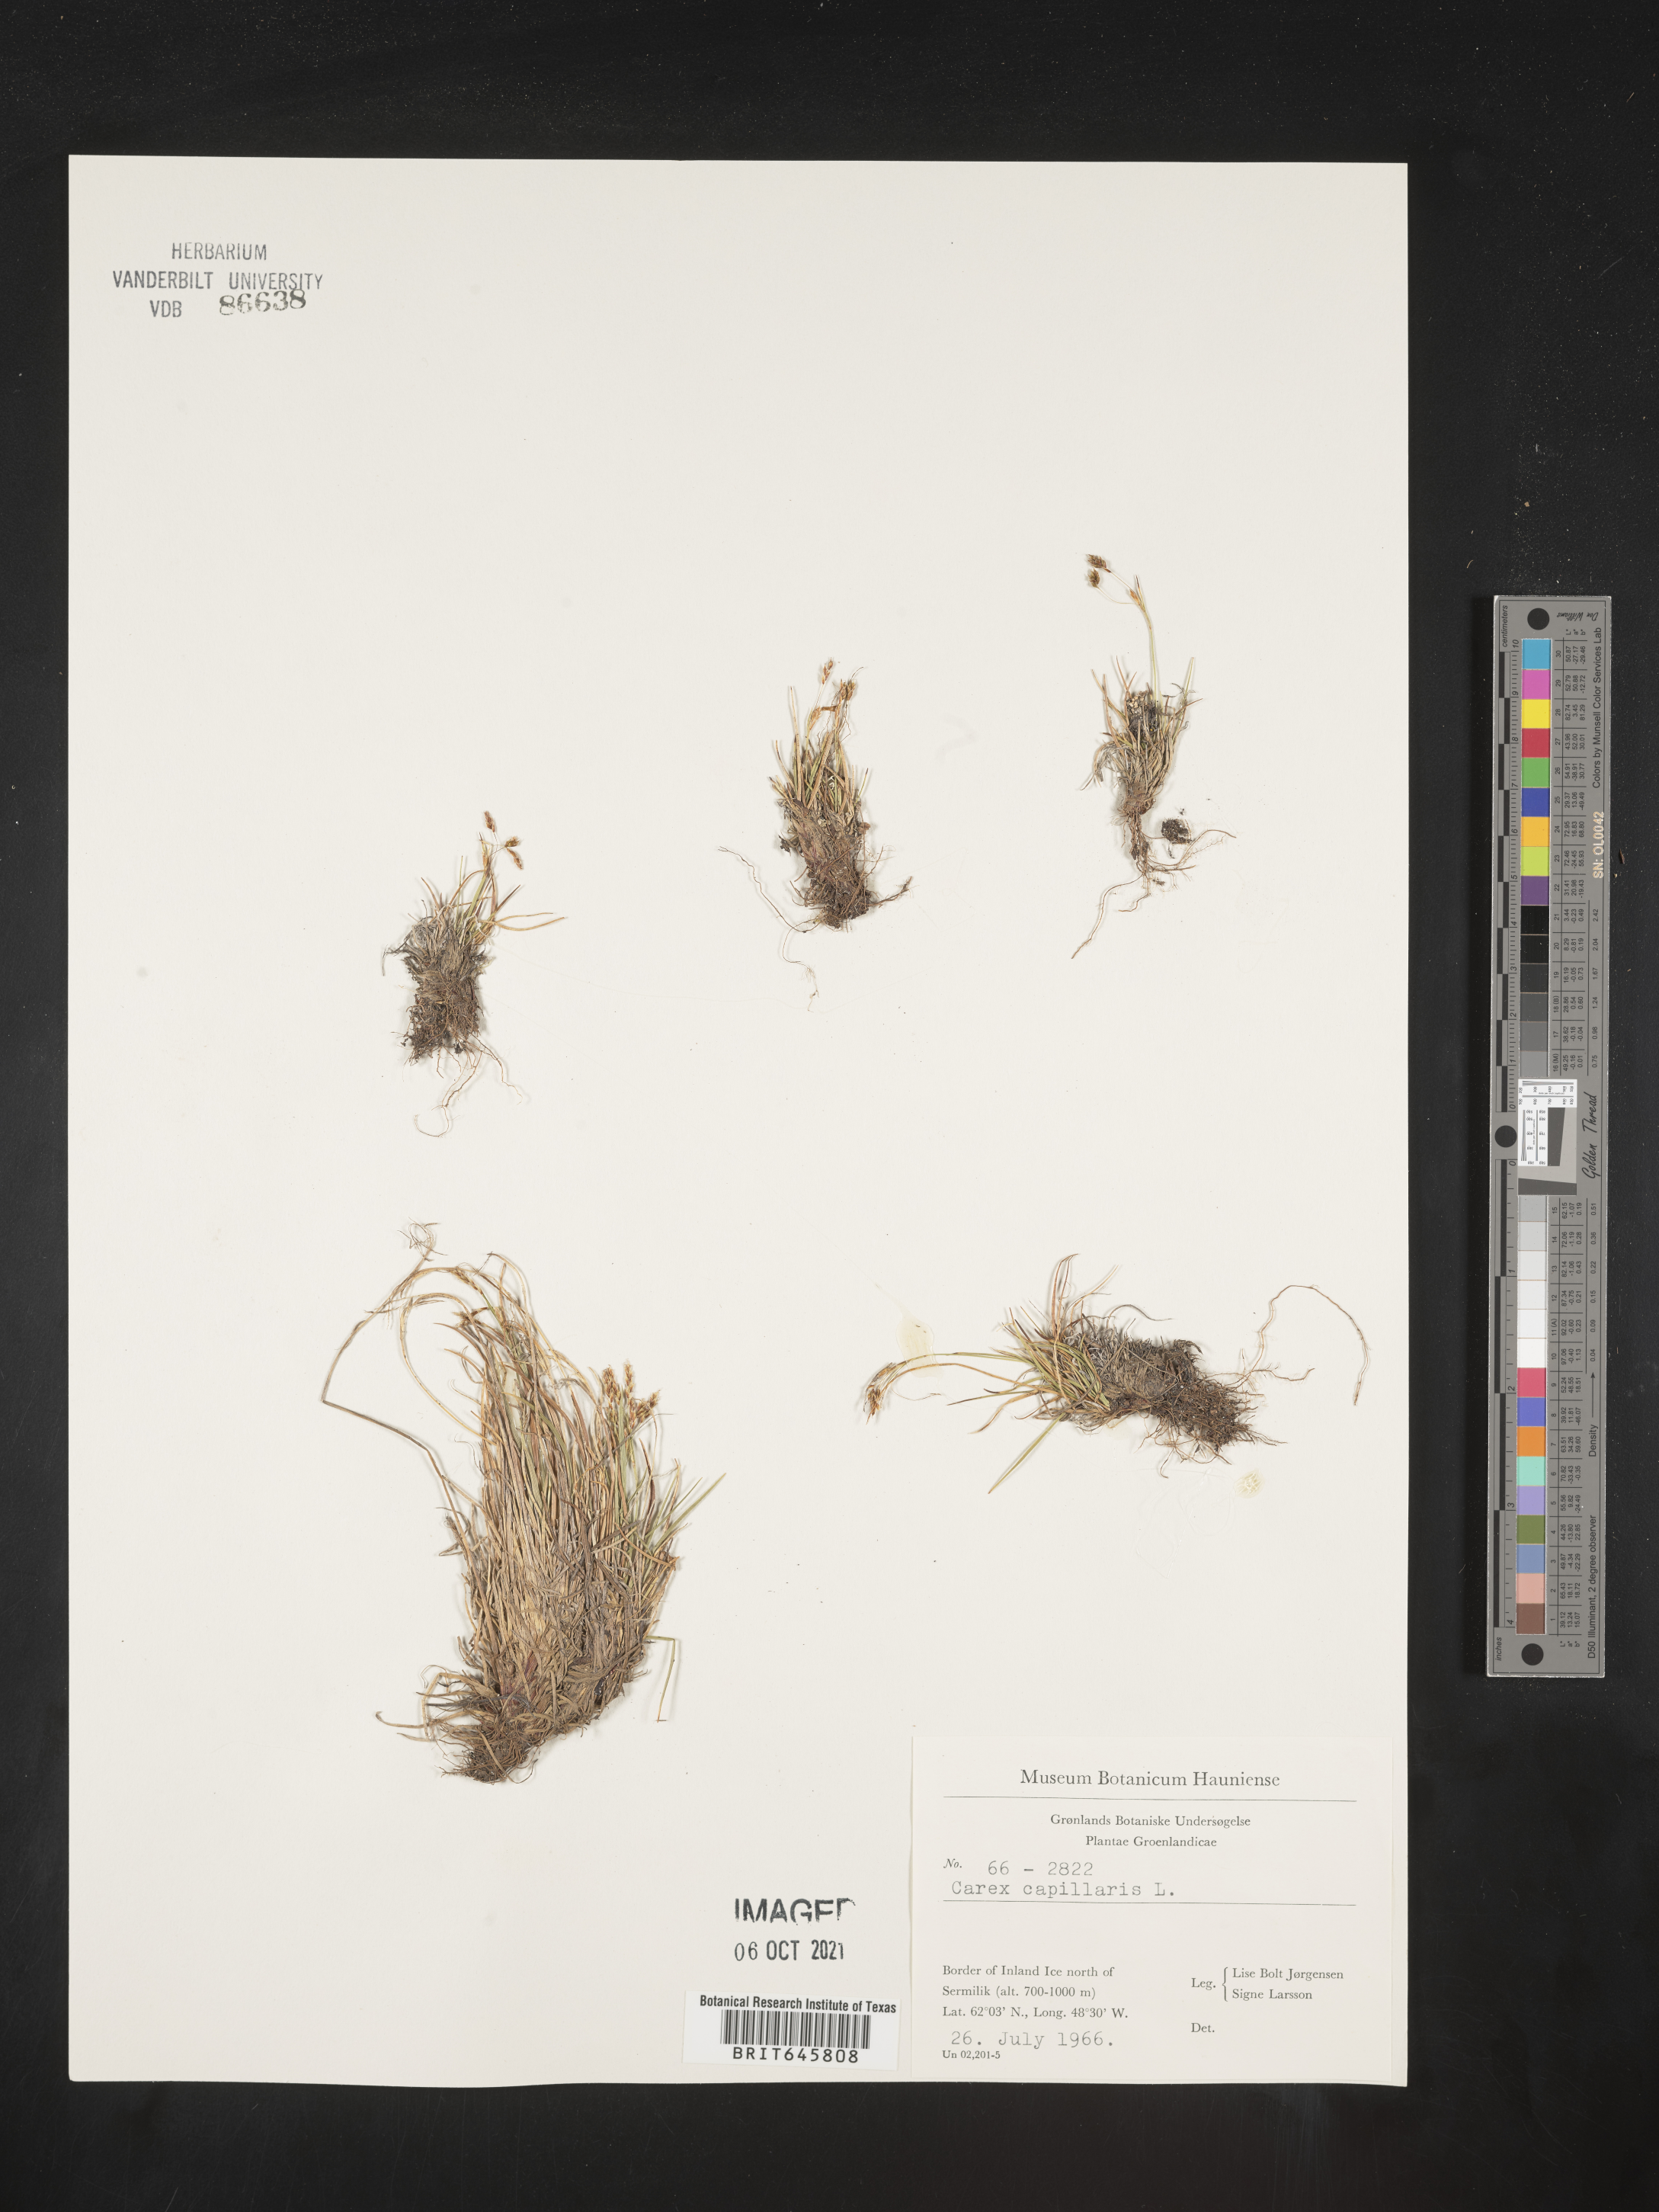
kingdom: Plantae
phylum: Tracheophyta
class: Liliopsida
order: Poales
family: Cyperaceae
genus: Carex
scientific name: Carex capillaris
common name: Hair sedge
